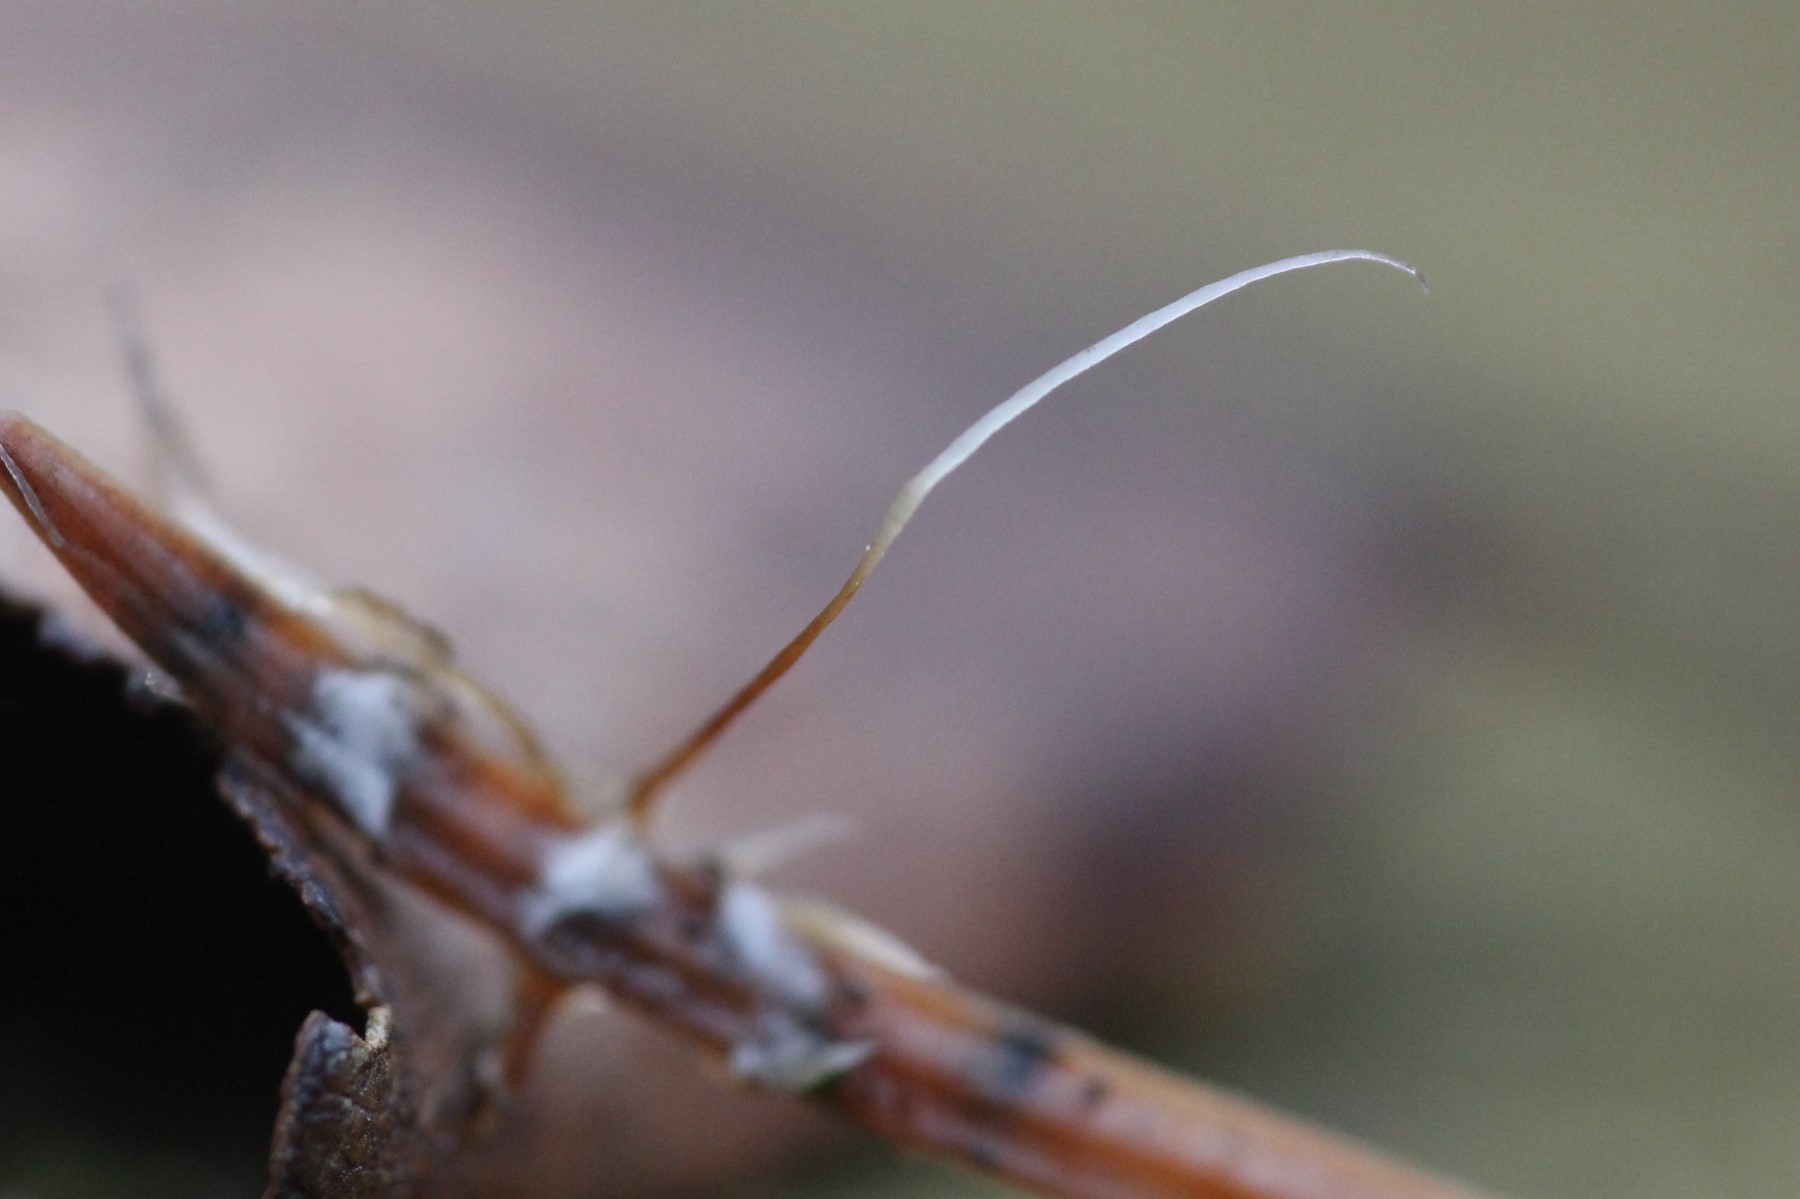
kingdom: Fungi
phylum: Basidiomycota
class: Agaricomycetes
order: Agaricales
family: Typhulaceae
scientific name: Typhulaceae
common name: trådkøllefamilien
